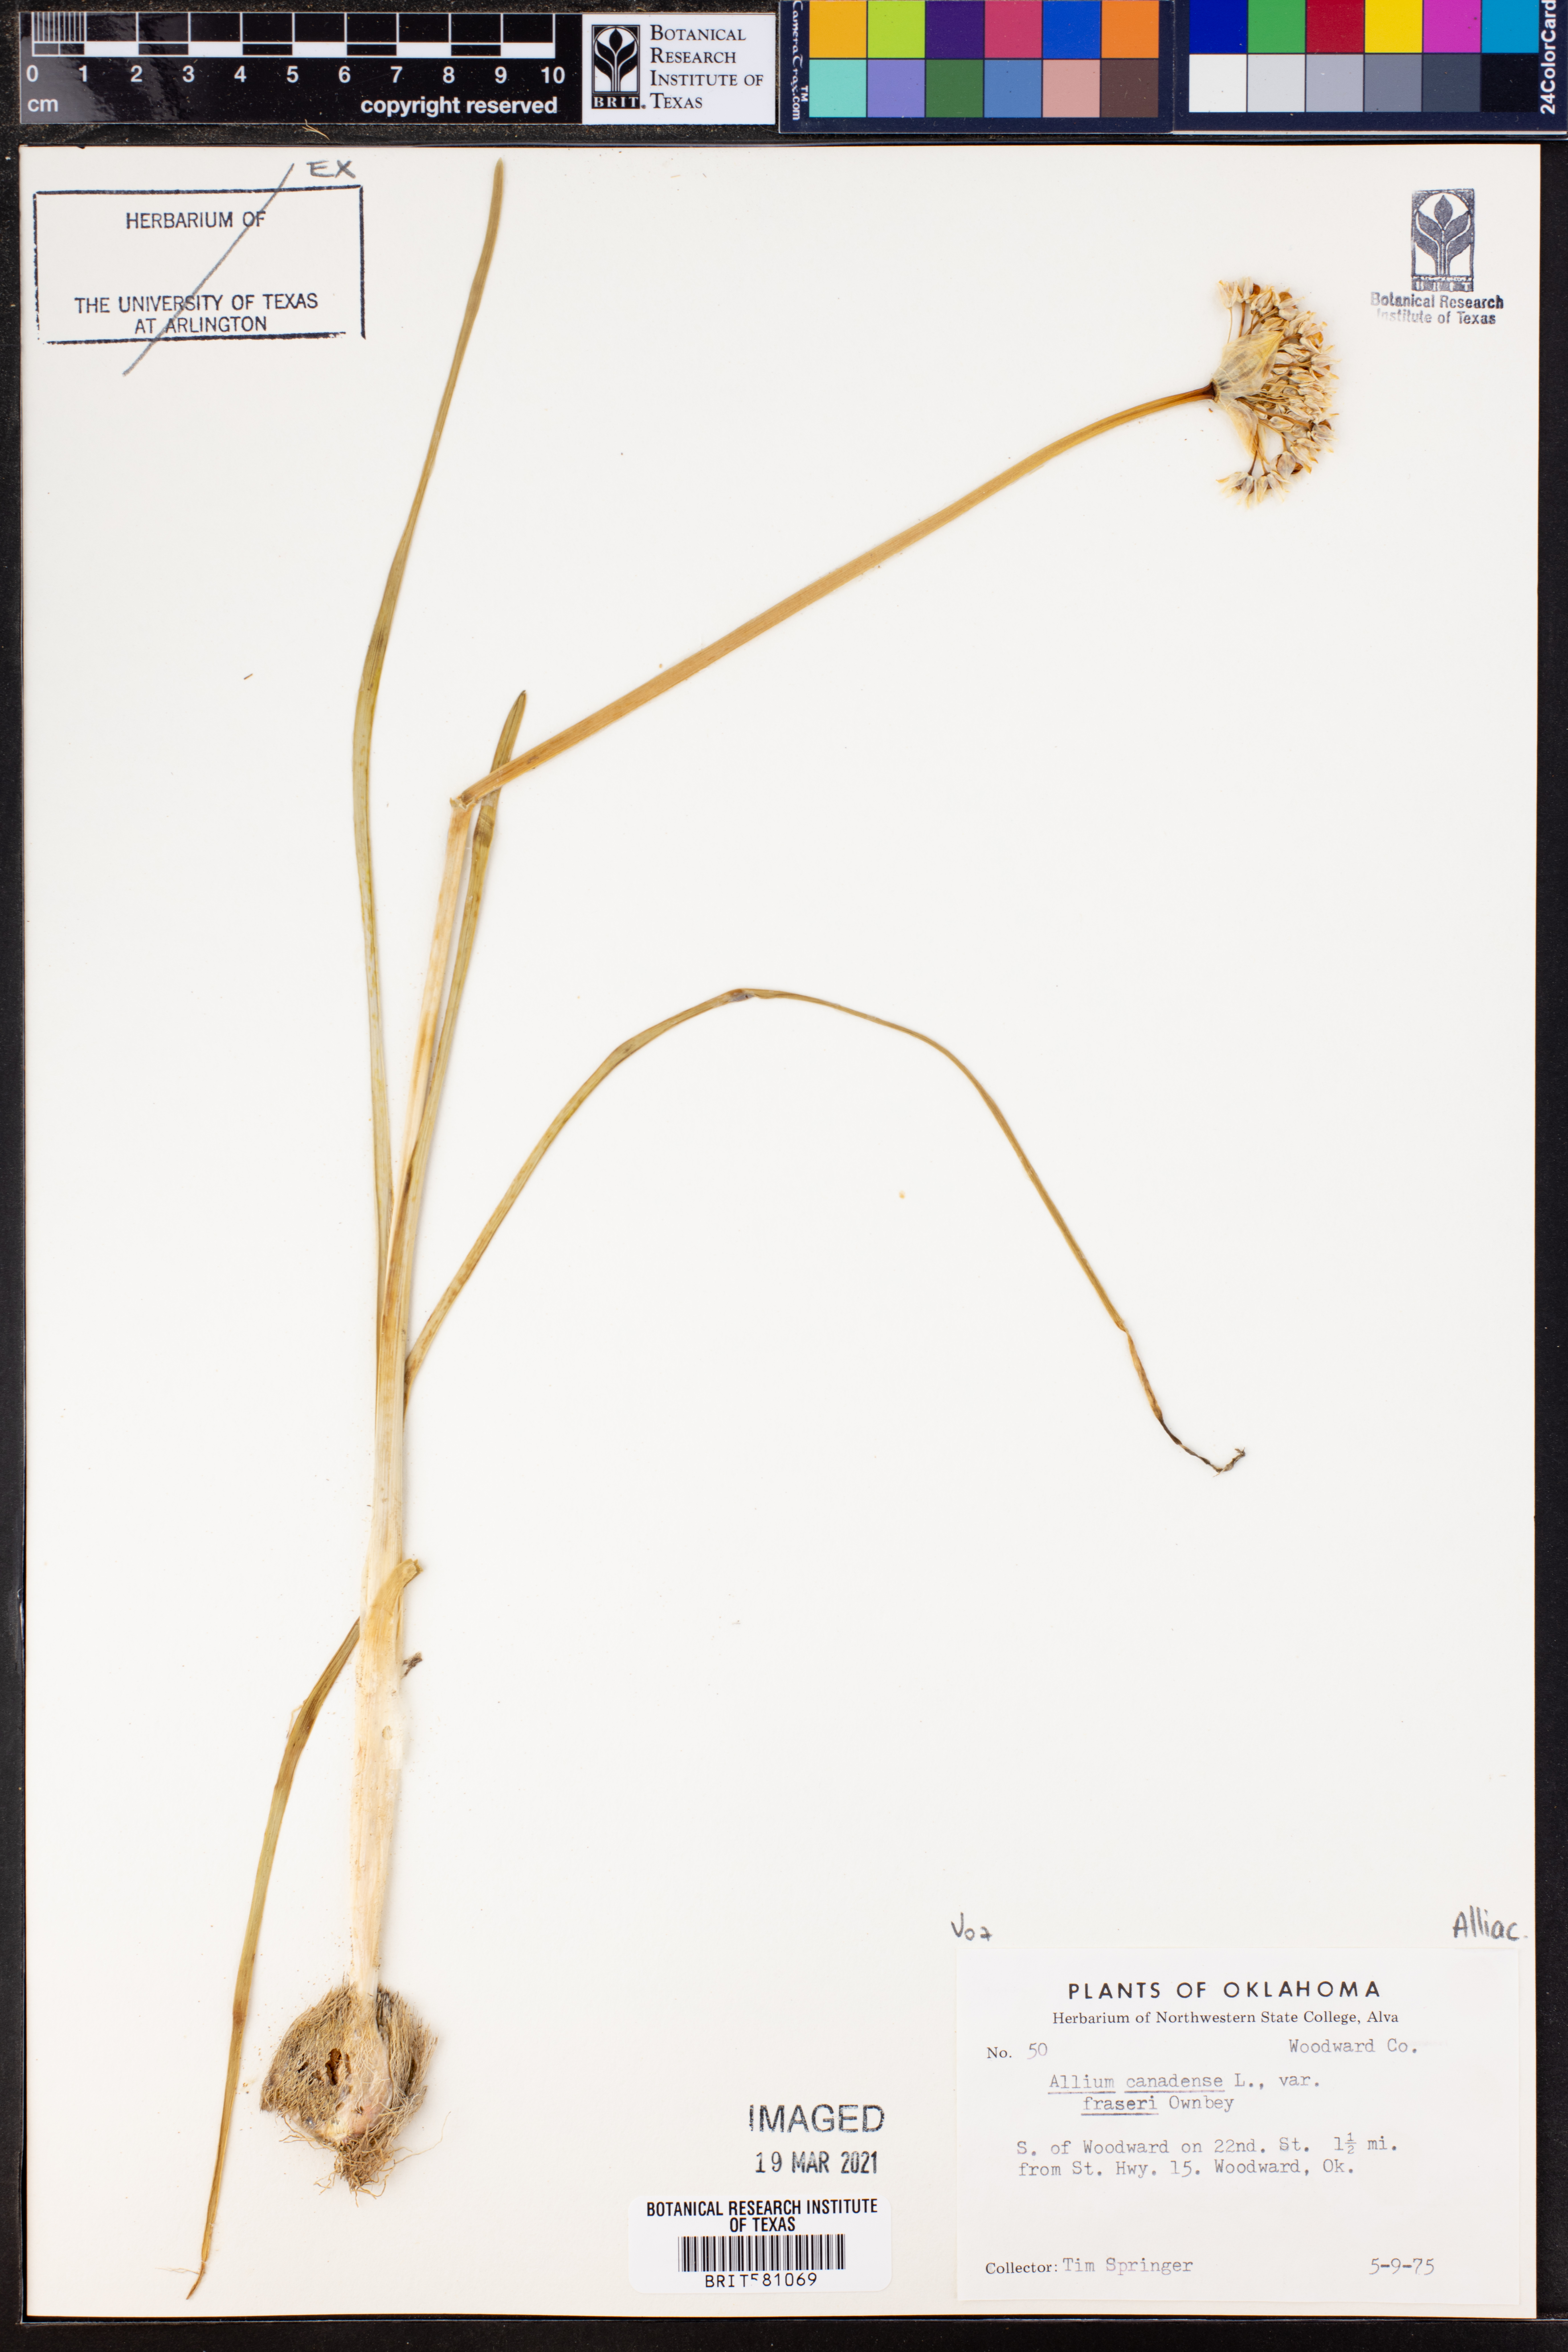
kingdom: Plantae
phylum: Tracheophyta
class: Liliopsida
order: Asparagales
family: Amaryllidaceae
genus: Allium
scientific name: Allium fraseri
